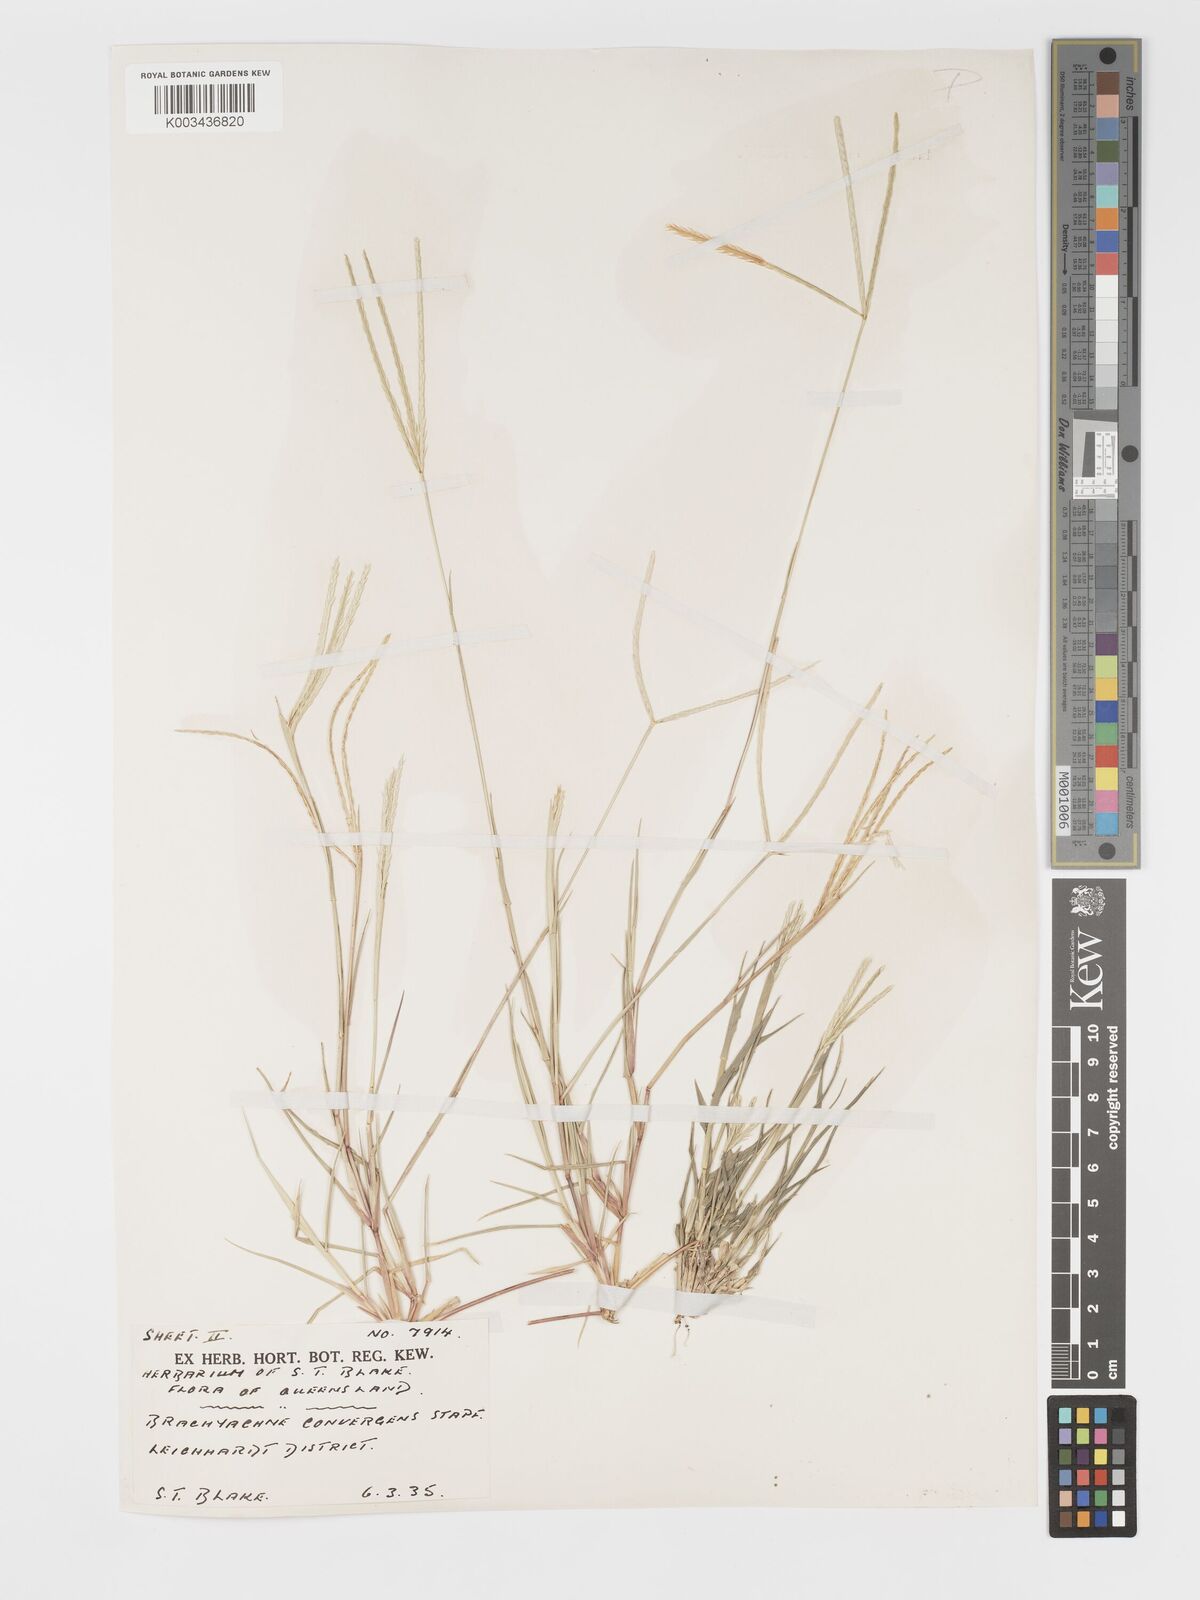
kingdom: Plantae
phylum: Tracheophyta
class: Liliopsida
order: Poales
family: Poaceae
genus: Cynodon
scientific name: Cynodon convergens
